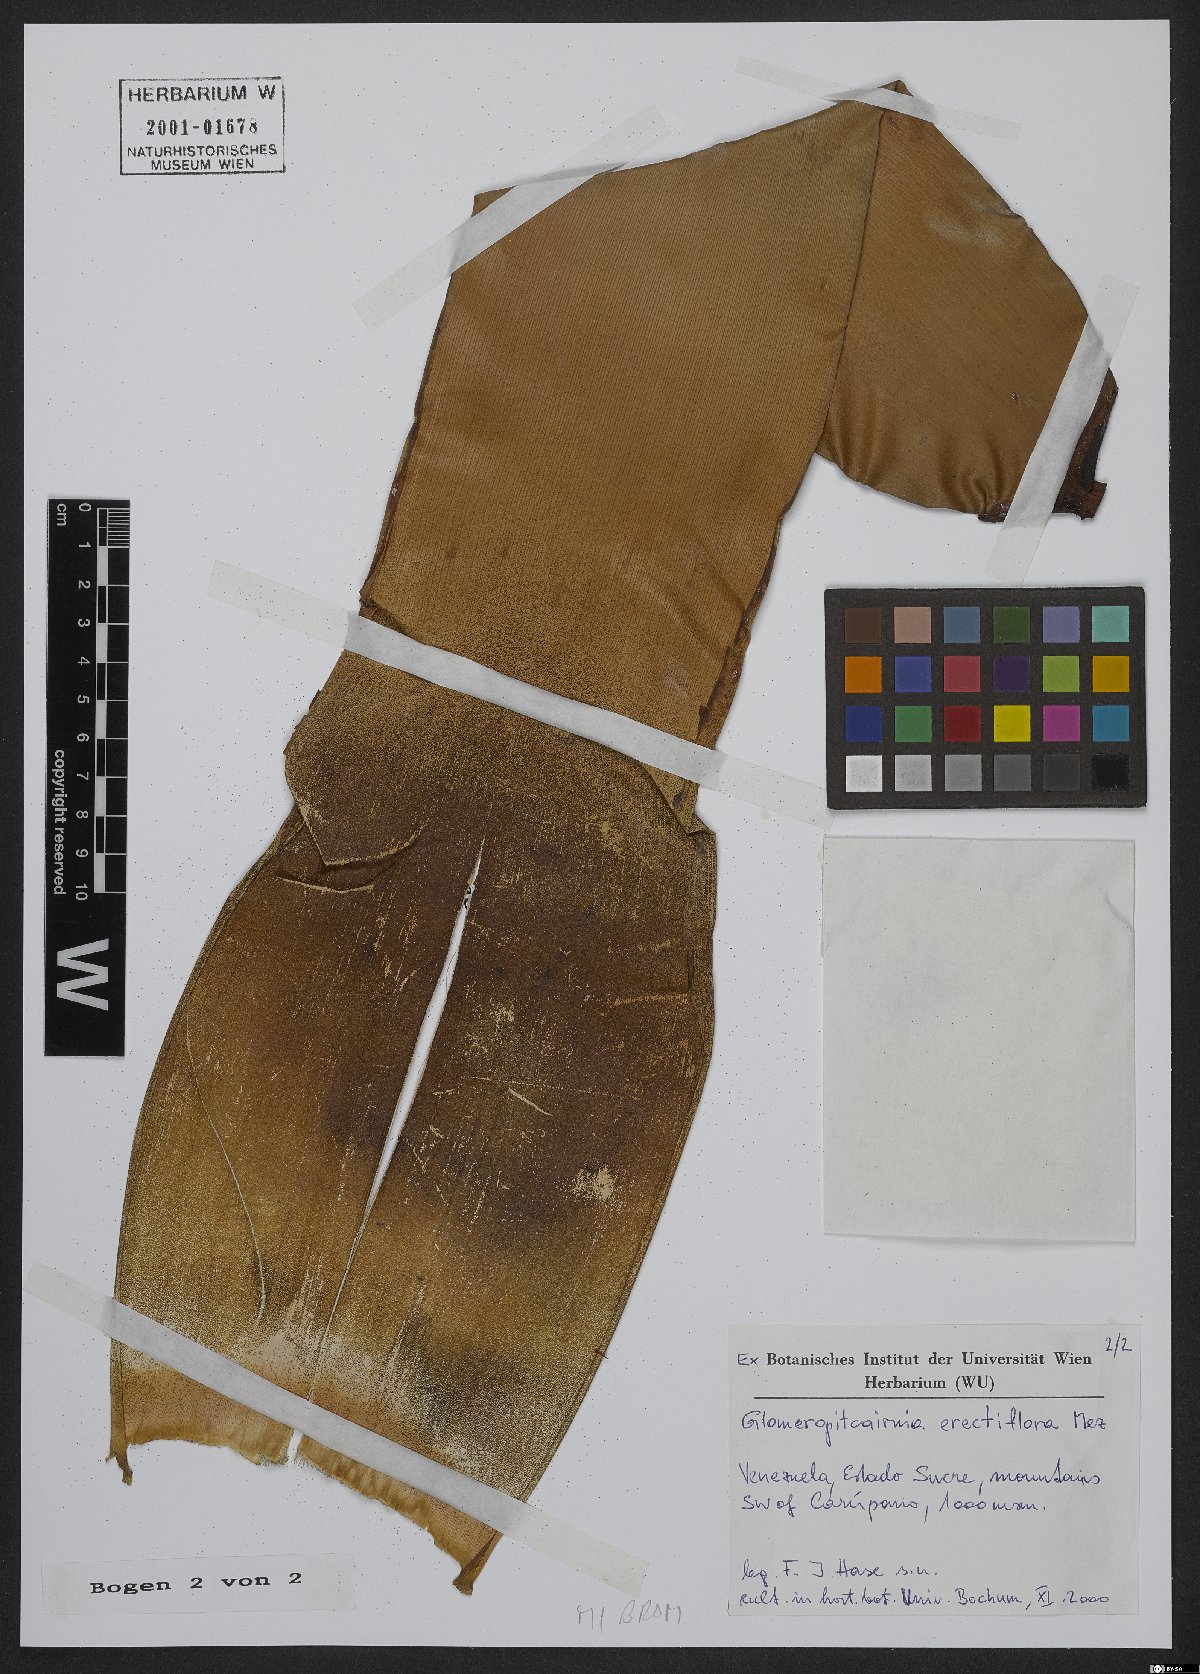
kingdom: Plantae
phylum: Tracheophyta
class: Liliopsida
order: Poales
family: Bromeliaceae
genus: Glomeropitcairnia
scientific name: Glomeropitcairnia erectiflora
